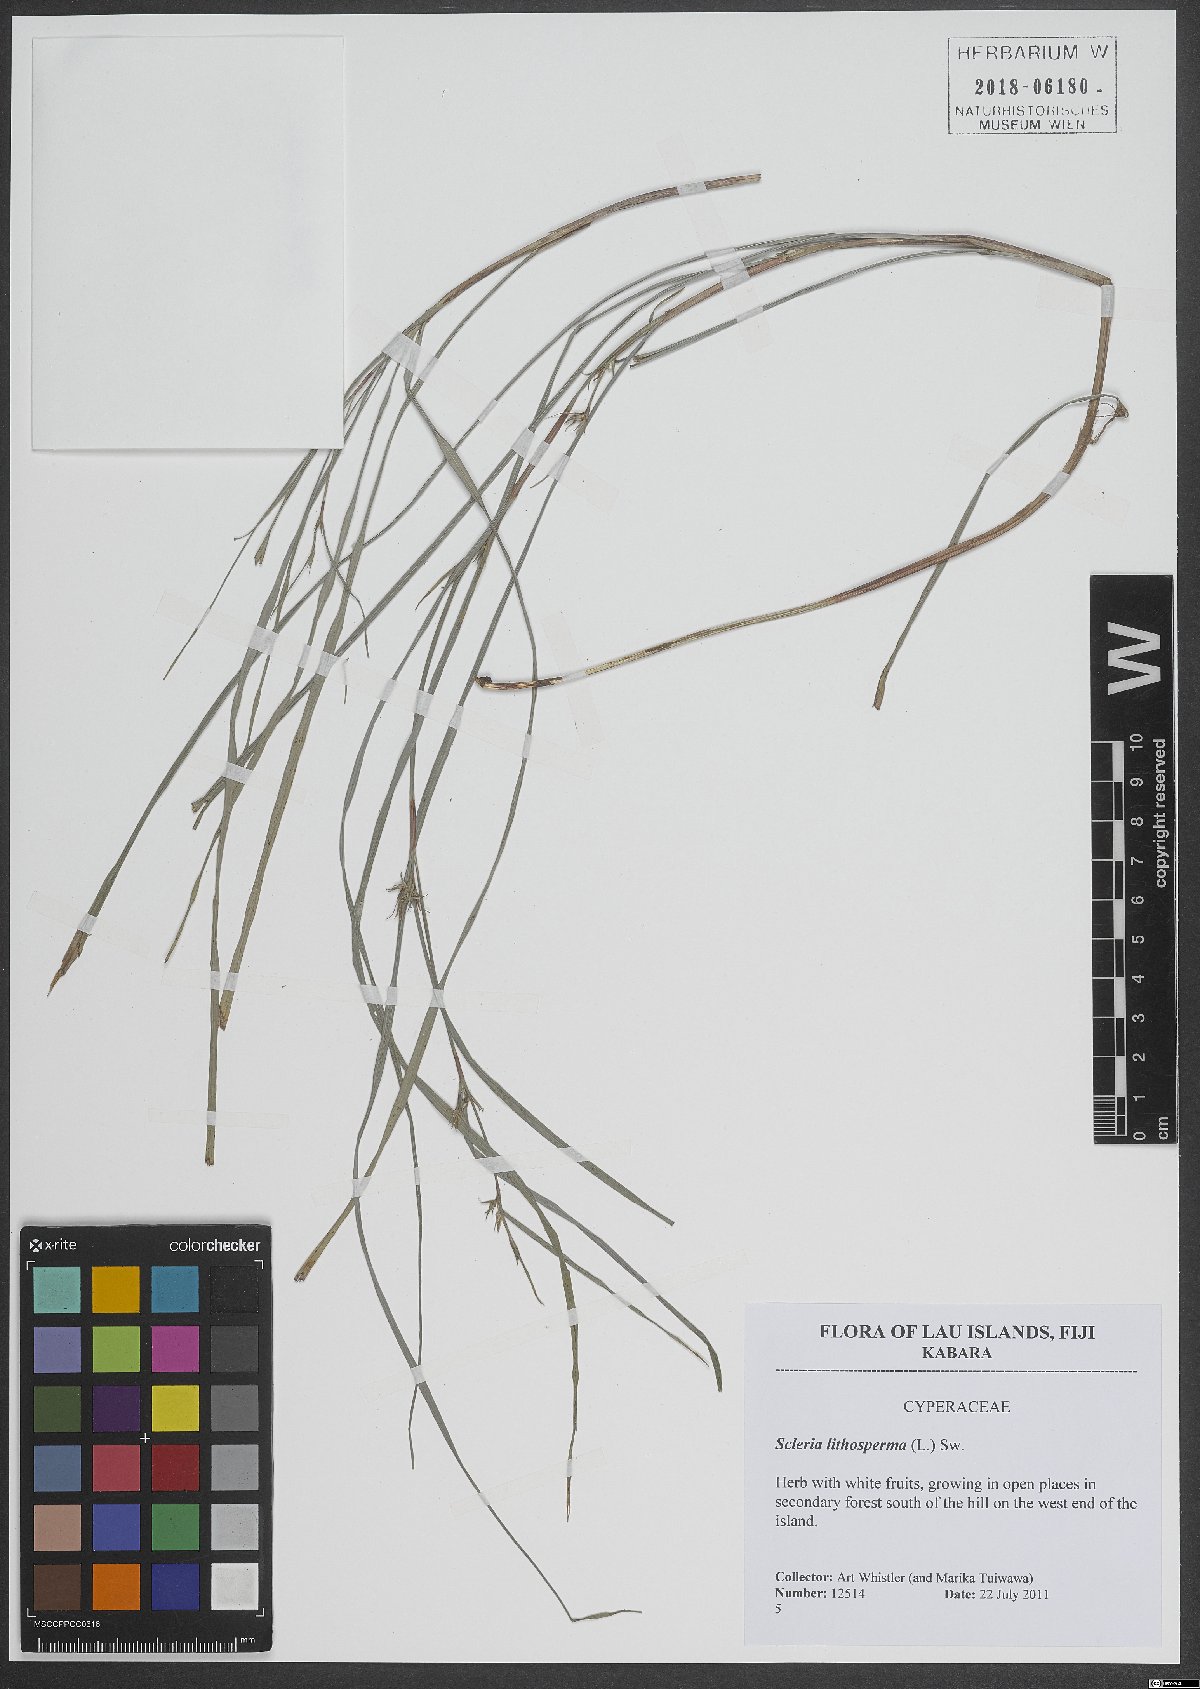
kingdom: Plantae
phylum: Tracheophyta
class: Liliopsida
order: Poales
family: Cyperaceae
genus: Scleria
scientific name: Scleria lithosperma
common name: Florida keys nut-rush
